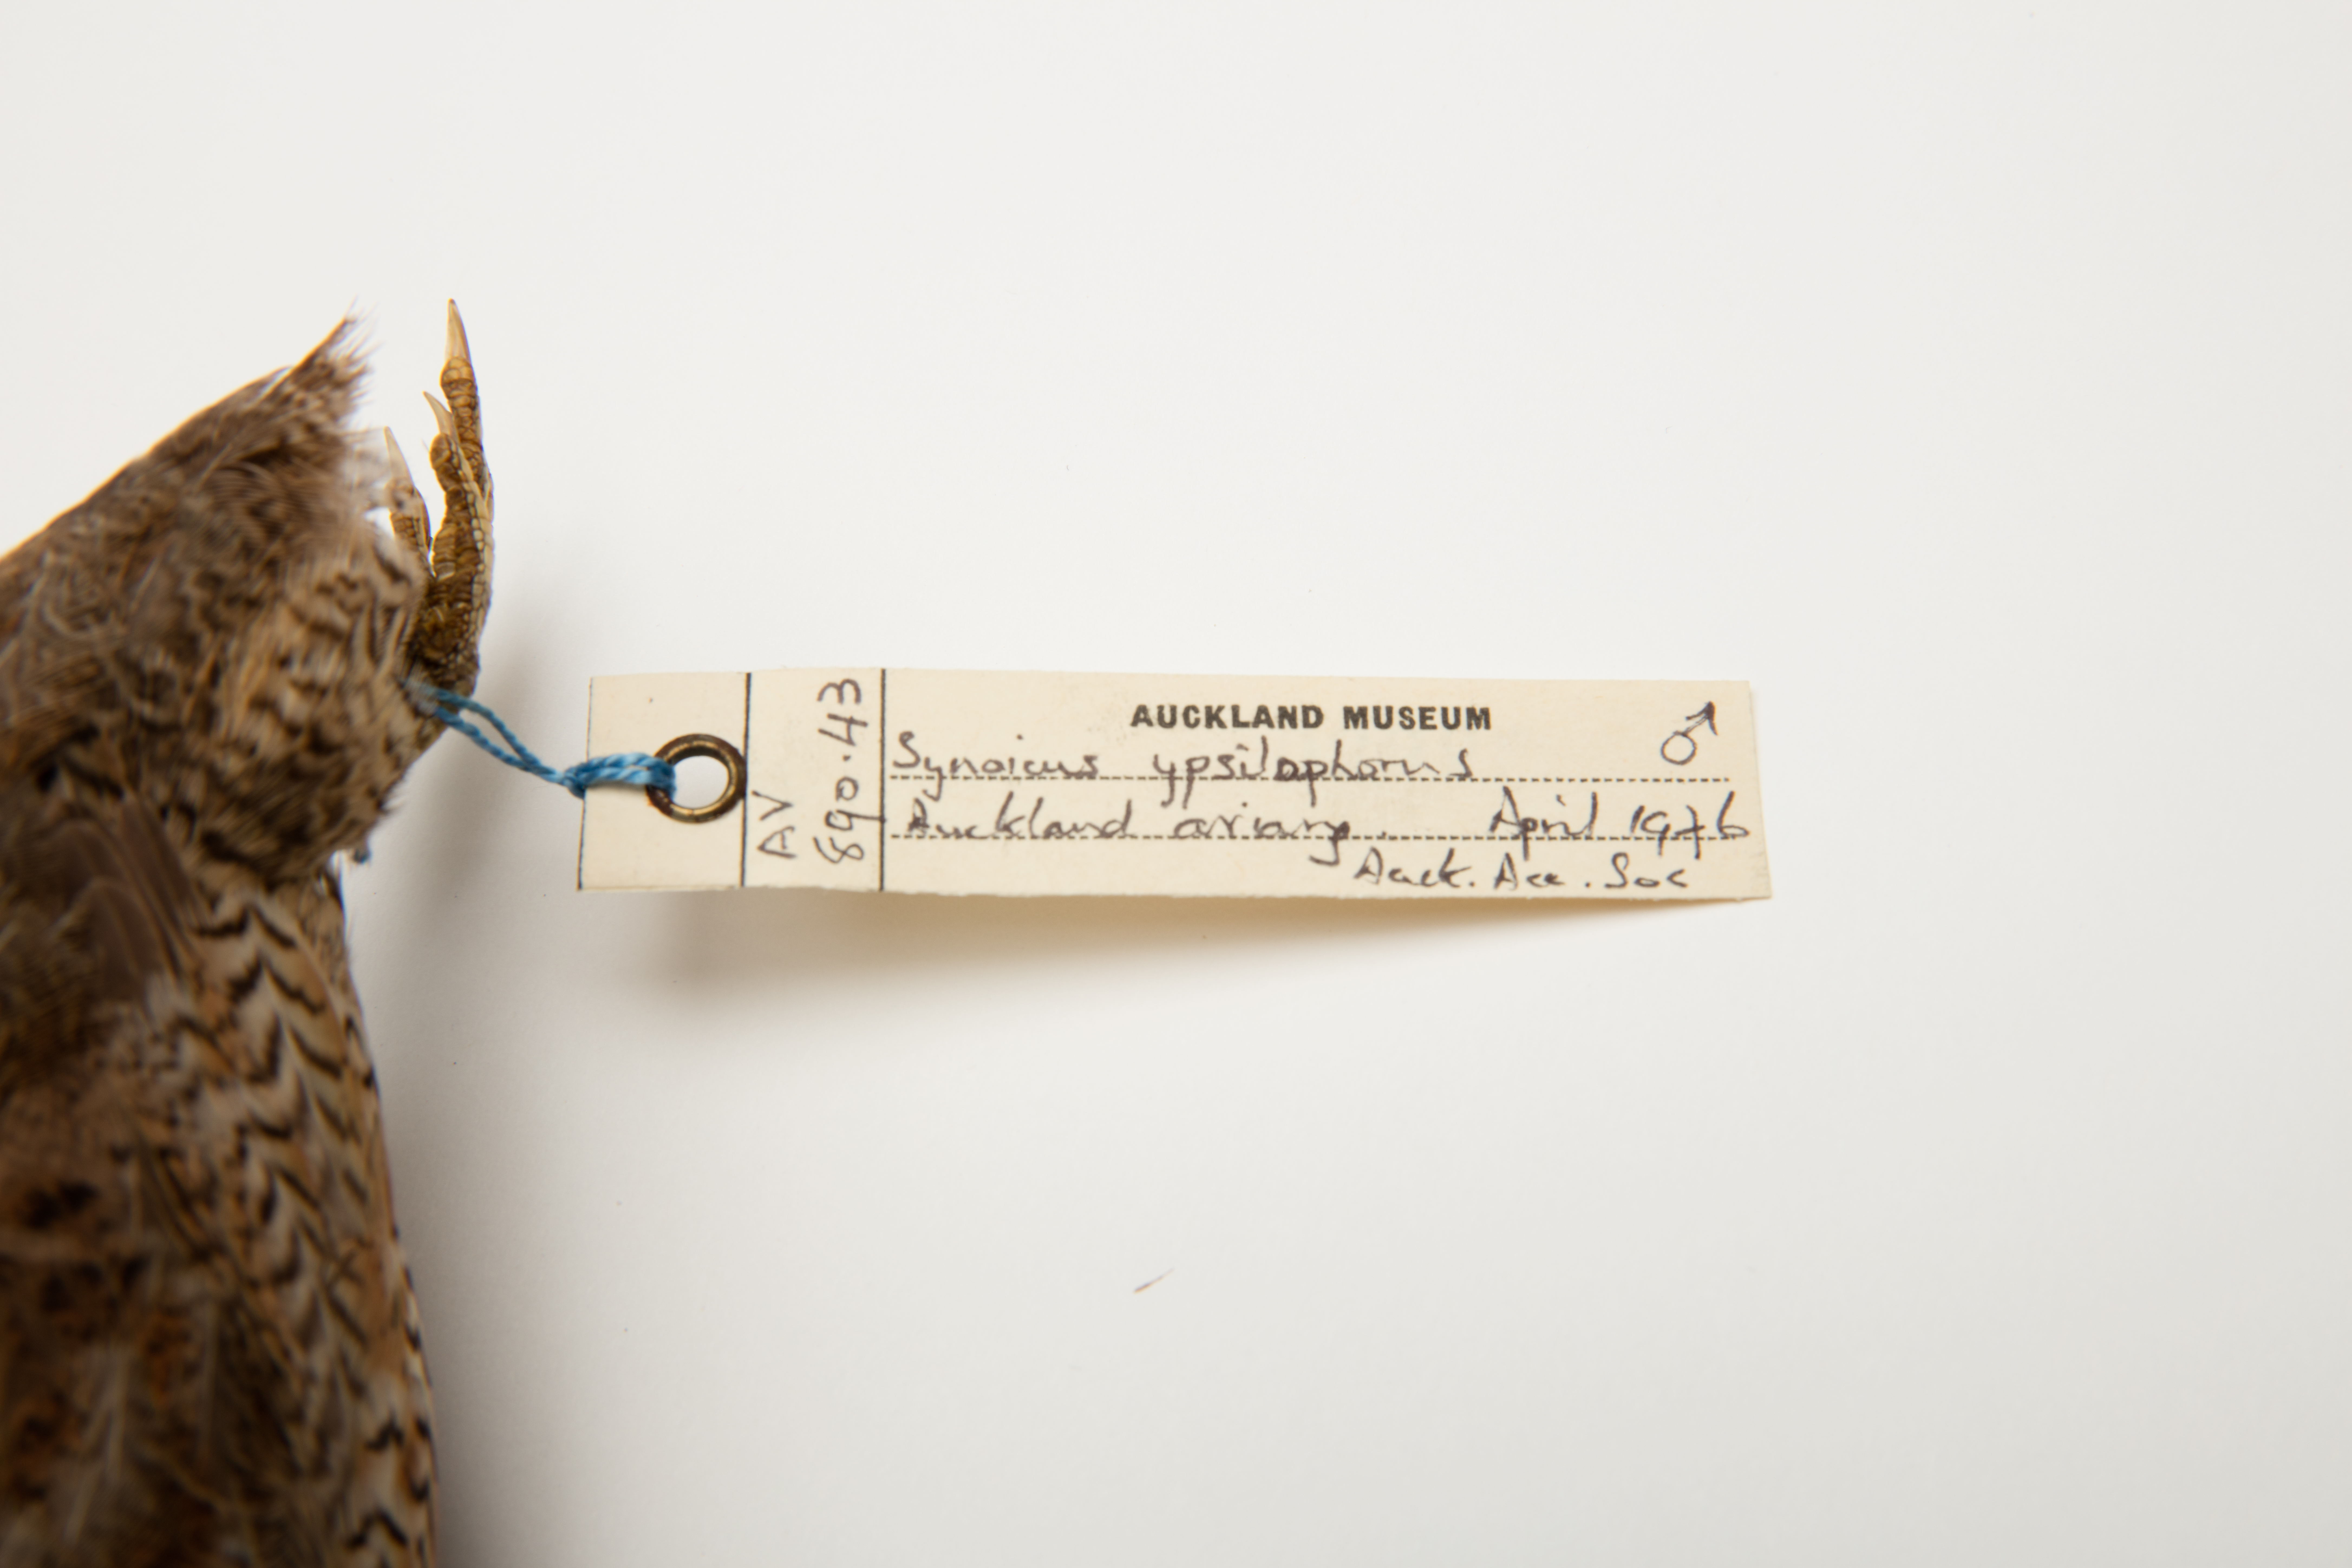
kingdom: Animalia
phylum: Chordata
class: Aves
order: Galliformes
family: Phasianidae
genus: Synoicus
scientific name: Synoicus ypsilophorus
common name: Brown quail
